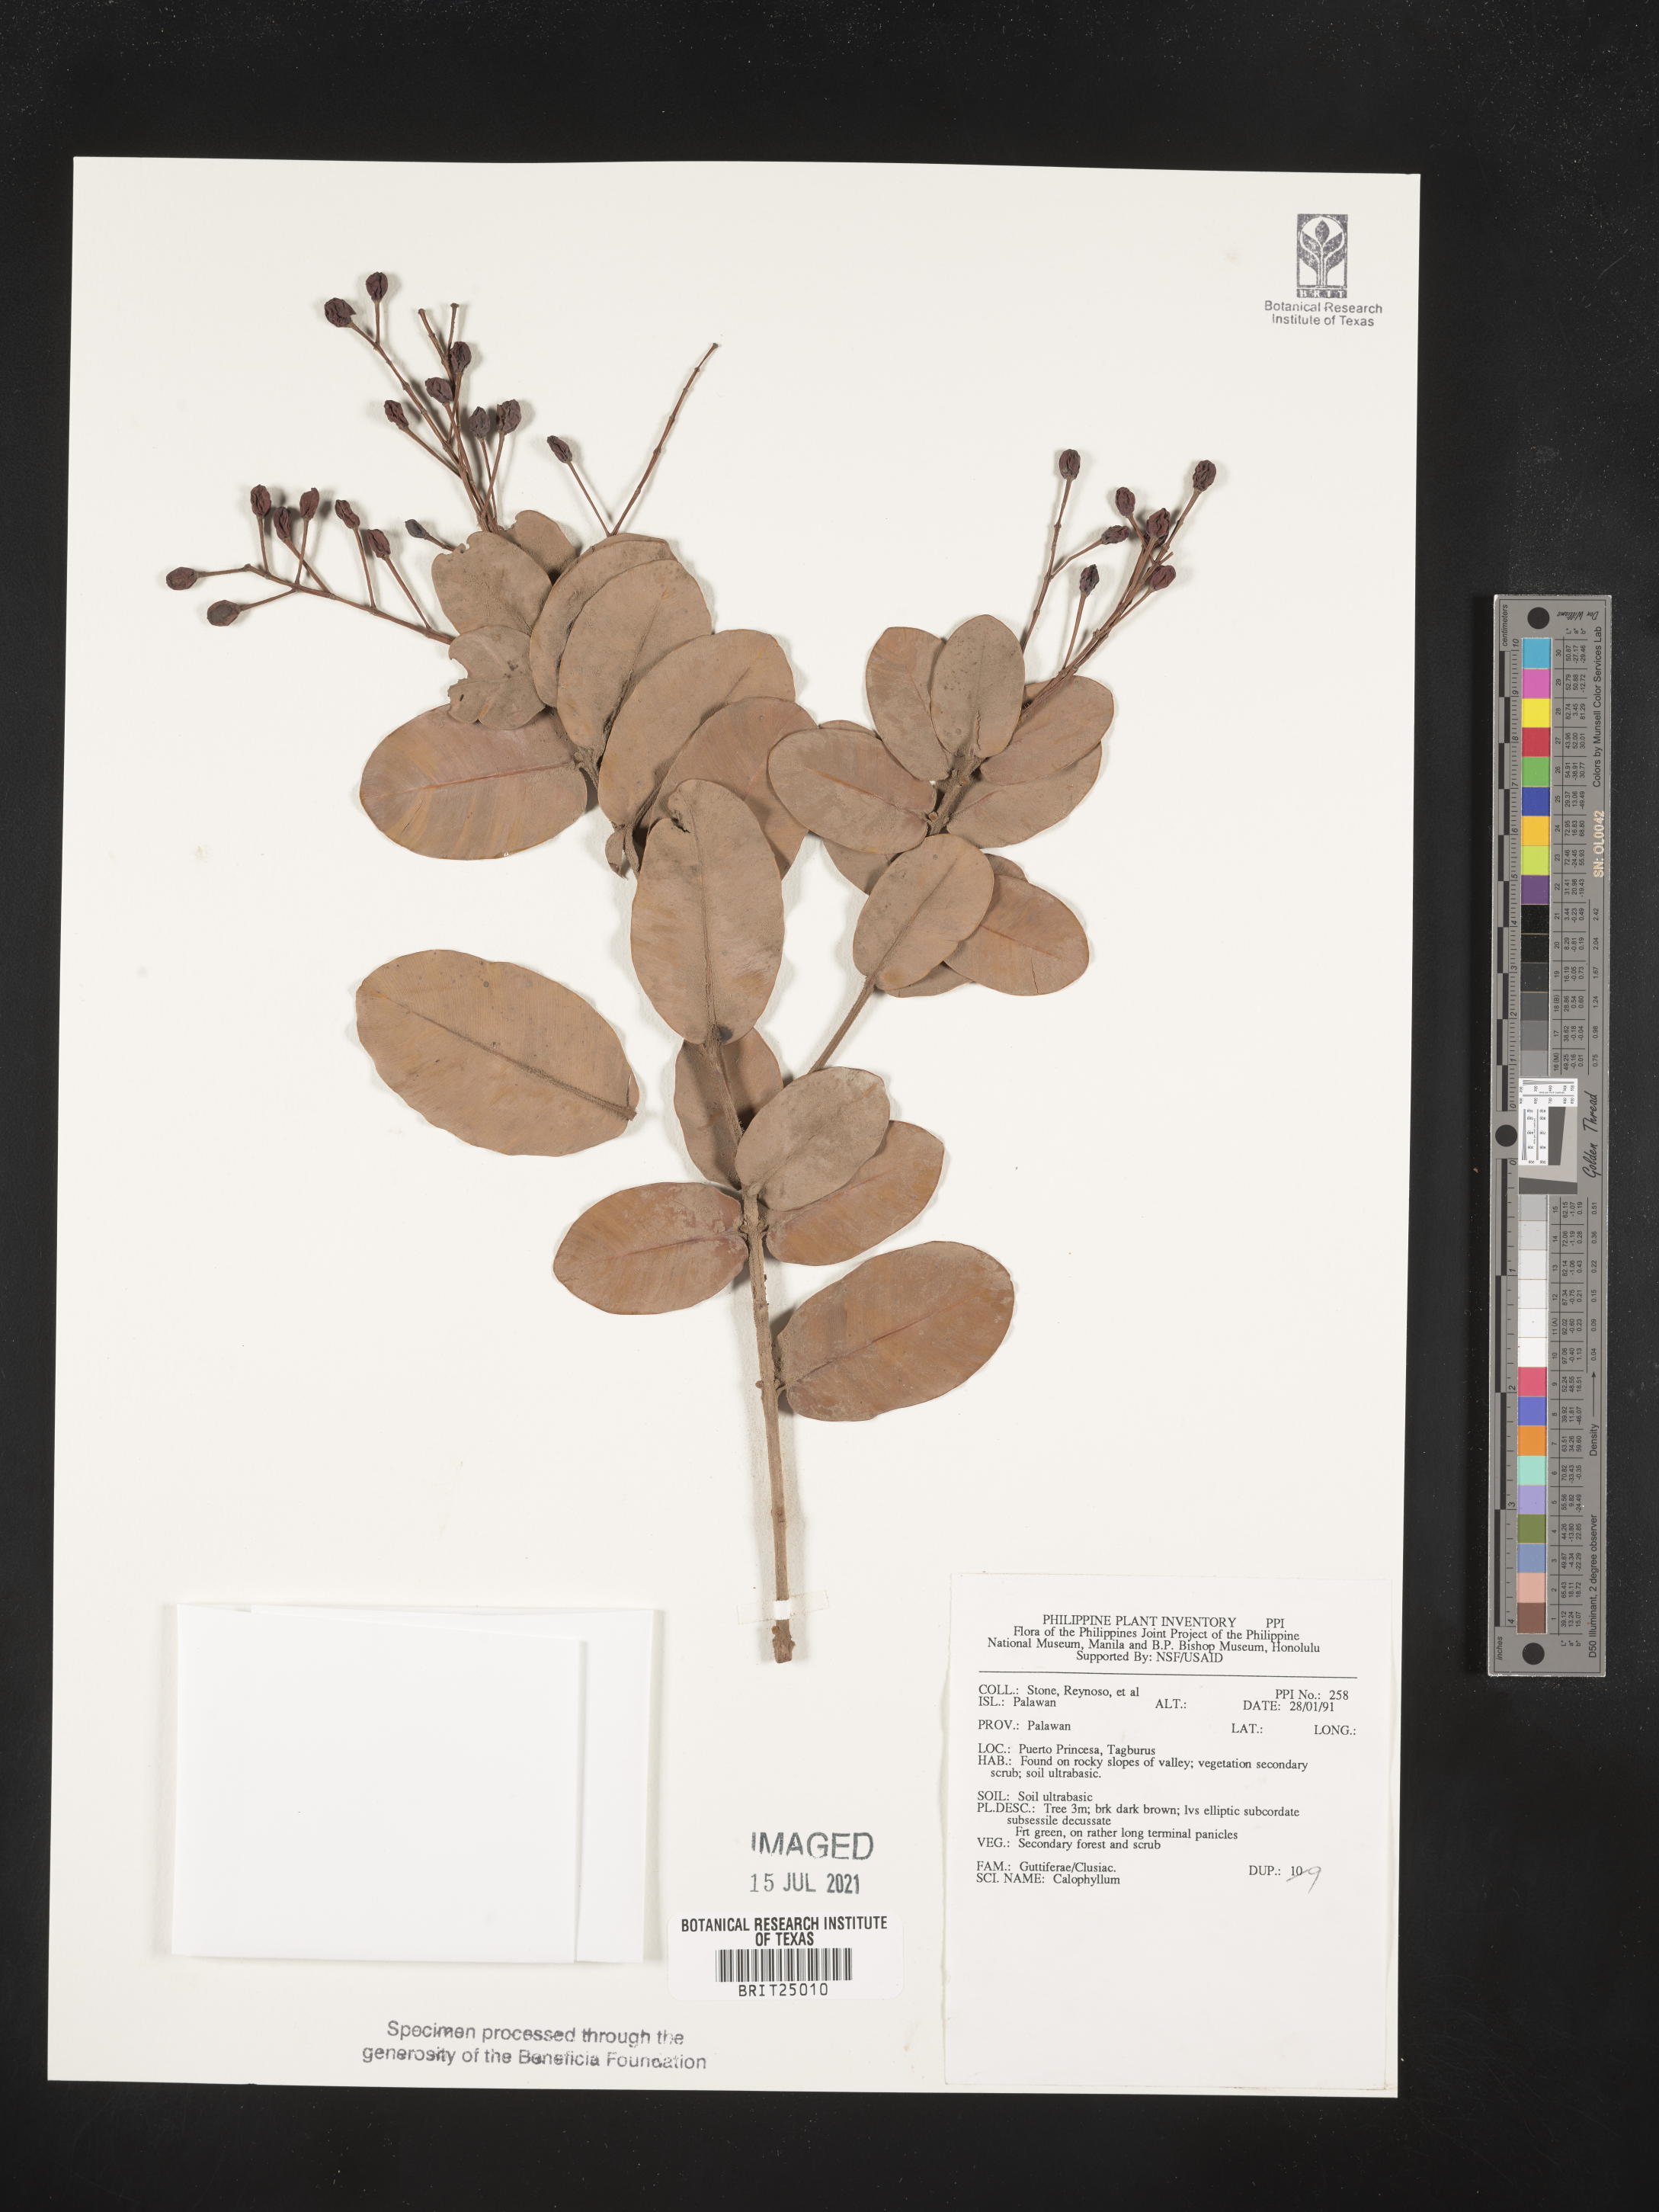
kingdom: Plantae
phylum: Tracheophyta
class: Magnoliopsida
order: Malpighiales
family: Calophyllaceae
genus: Calophyllum
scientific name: Calophyllum
